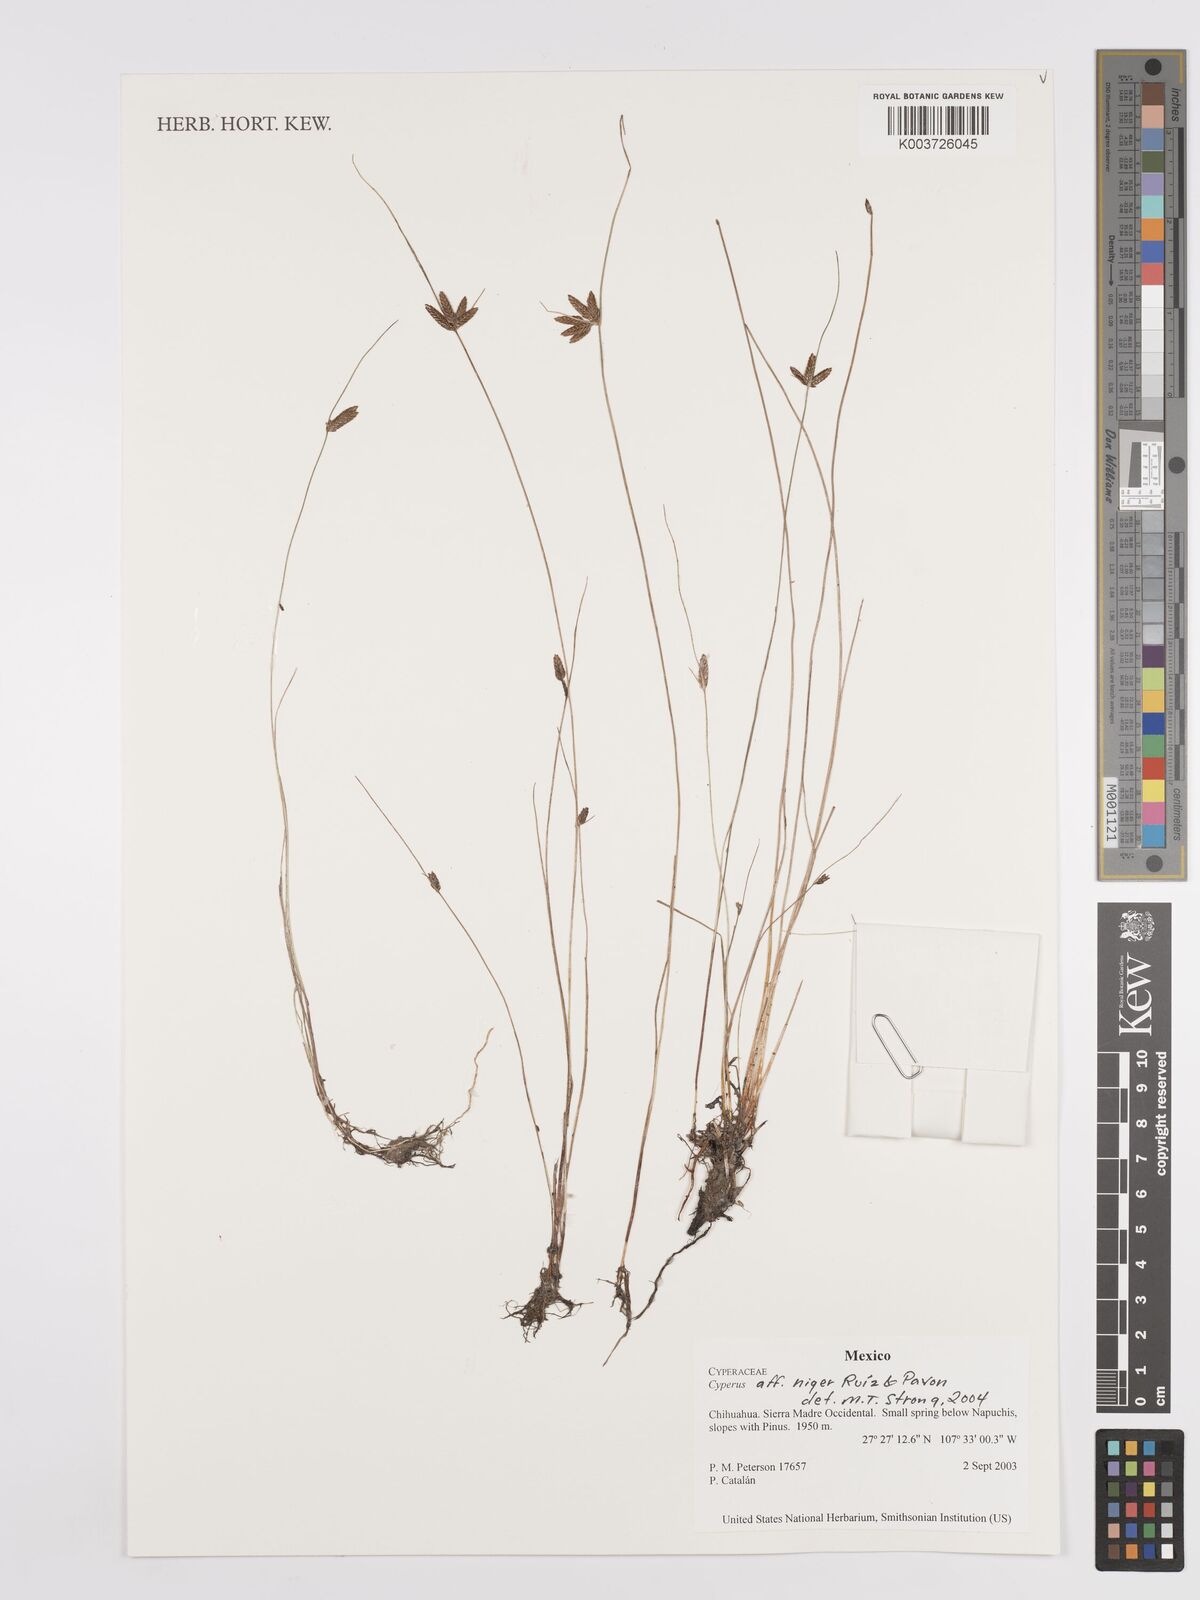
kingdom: Plantae
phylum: Tracheophyta
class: Liliopsida
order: Poales
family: Cyperaceae
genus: Cyperus
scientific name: Cyperus melanostachyus
